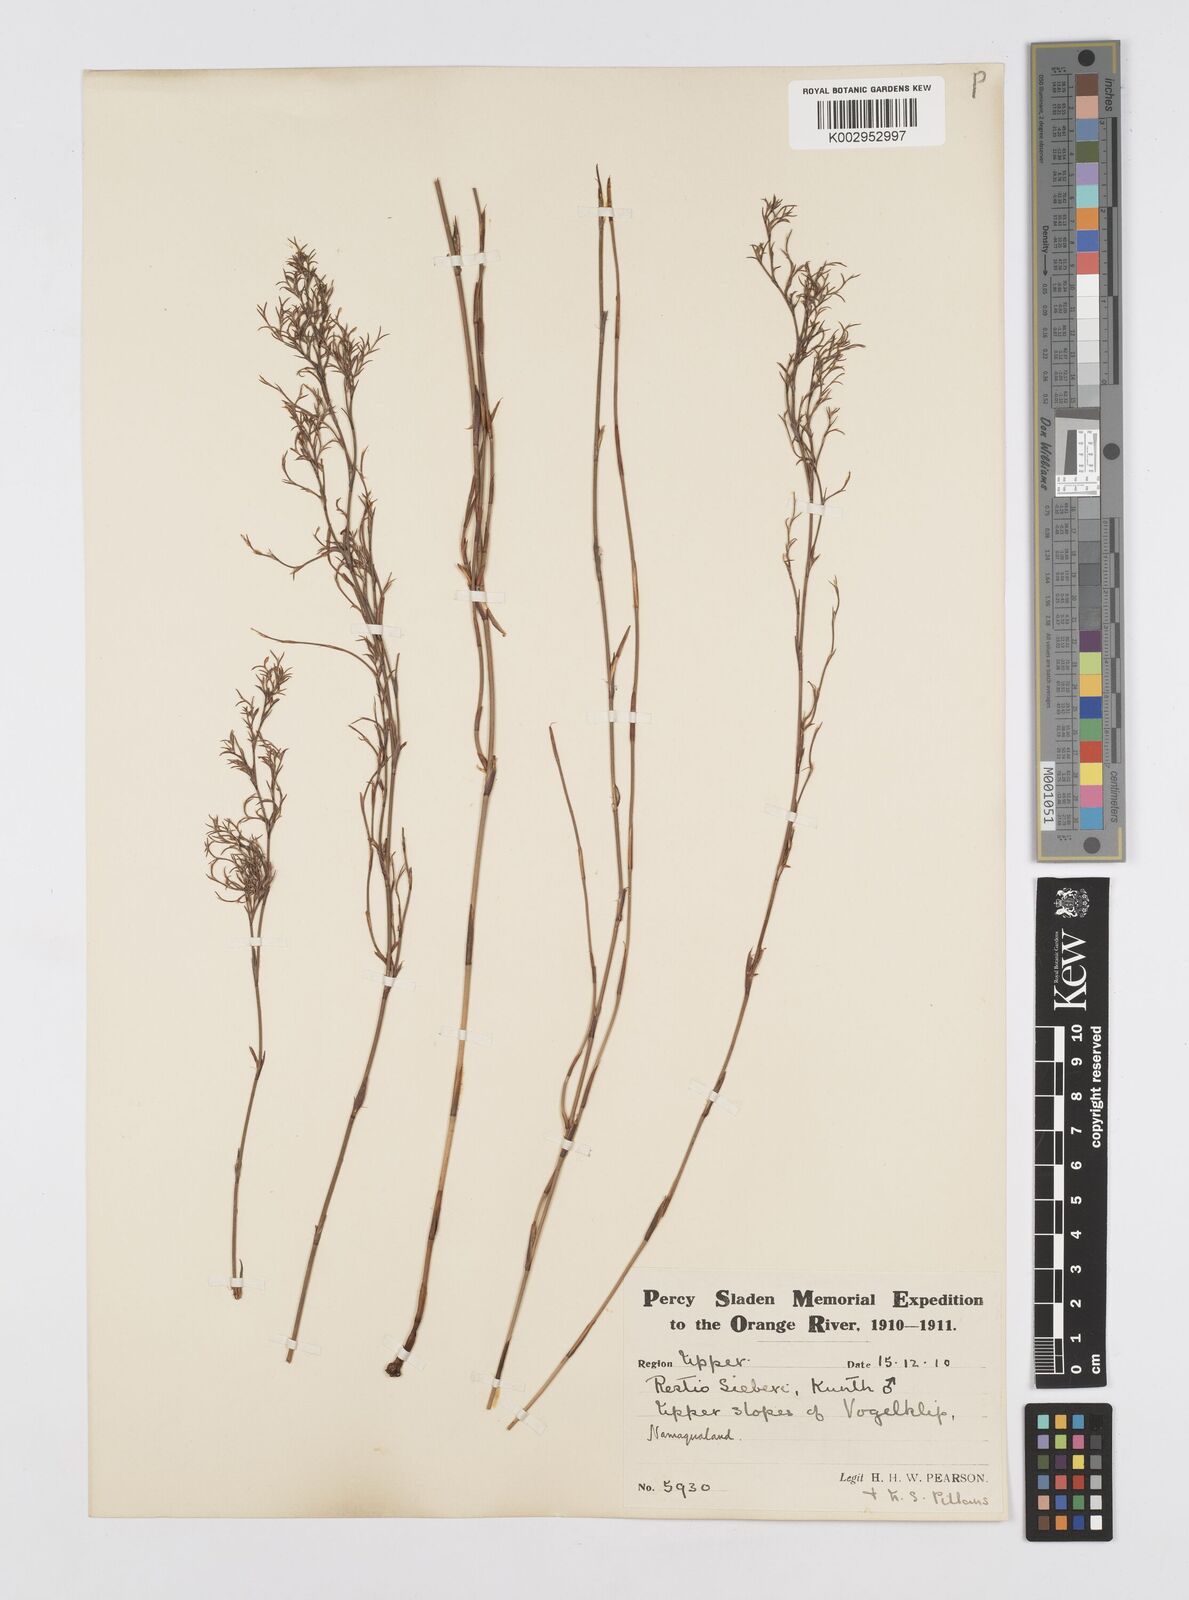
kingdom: Plantae
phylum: Tracheophyta
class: Liliopsida
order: Poales
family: Restionaceae
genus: Restio
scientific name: Restio sieberi
